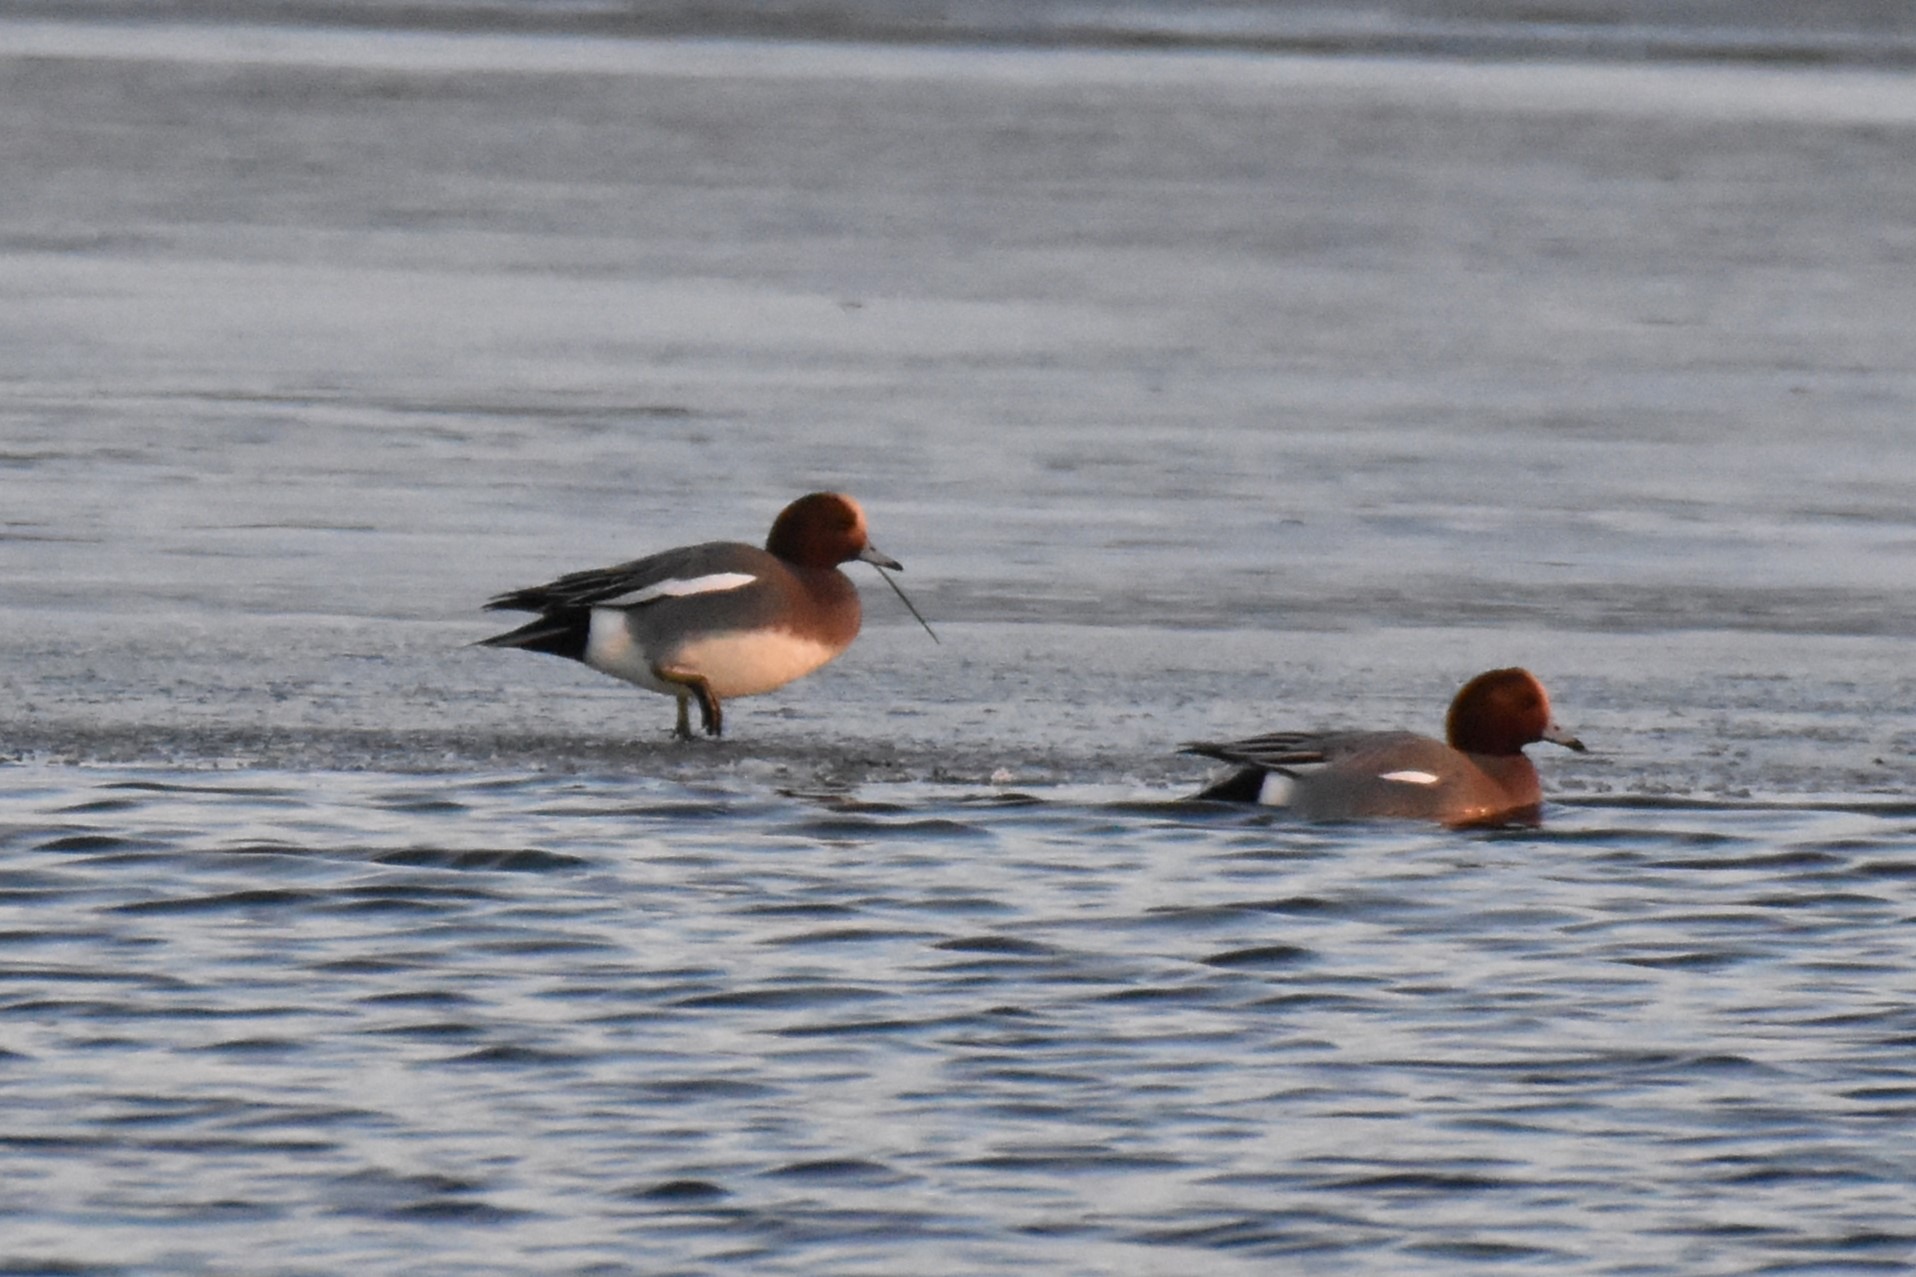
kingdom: Animalia
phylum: Chordata
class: Aves
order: Anseriformes
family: Anatidae
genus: Mareca
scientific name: Mareca penelope
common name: Pibeand
